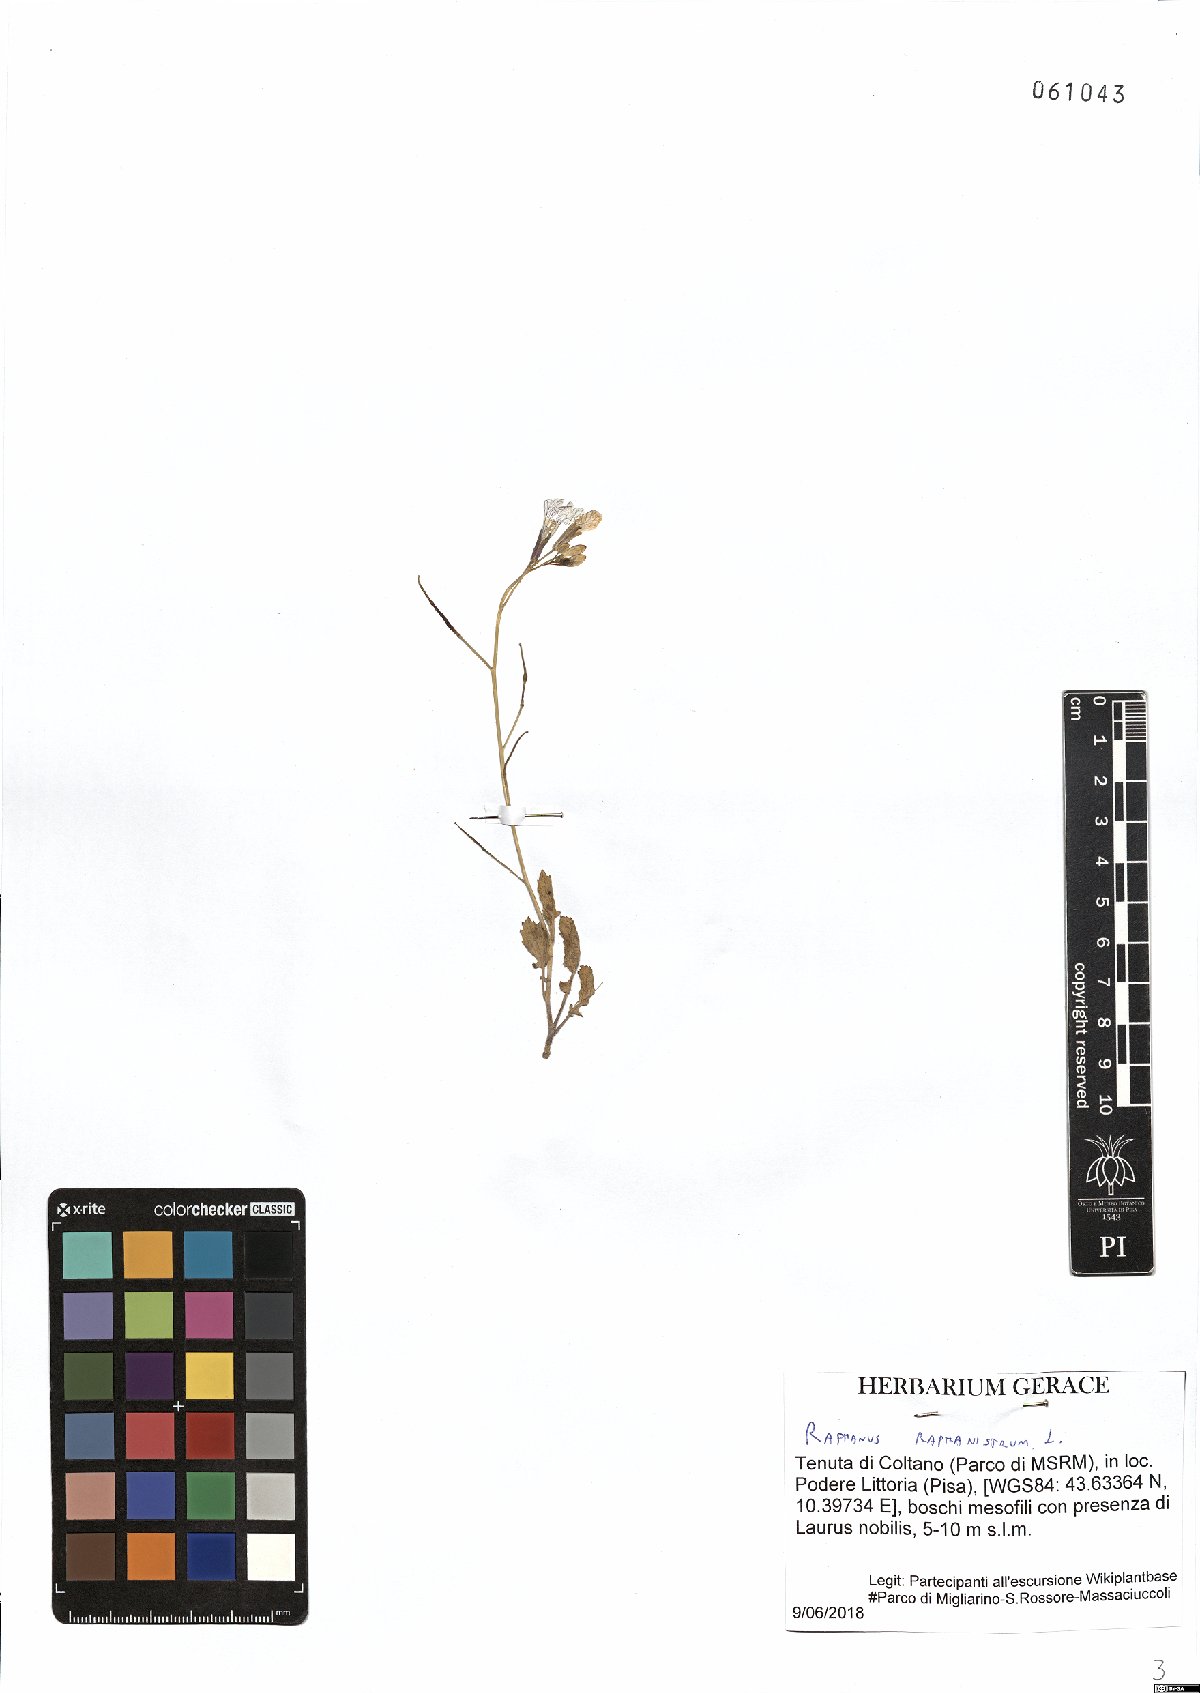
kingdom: Plantae
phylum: Tracheophyta
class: Magnoliopsida
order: Brassicales
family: Brassicaceae
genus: Raphanus
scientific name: Raphanus raphanistrum
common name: Wild radish
